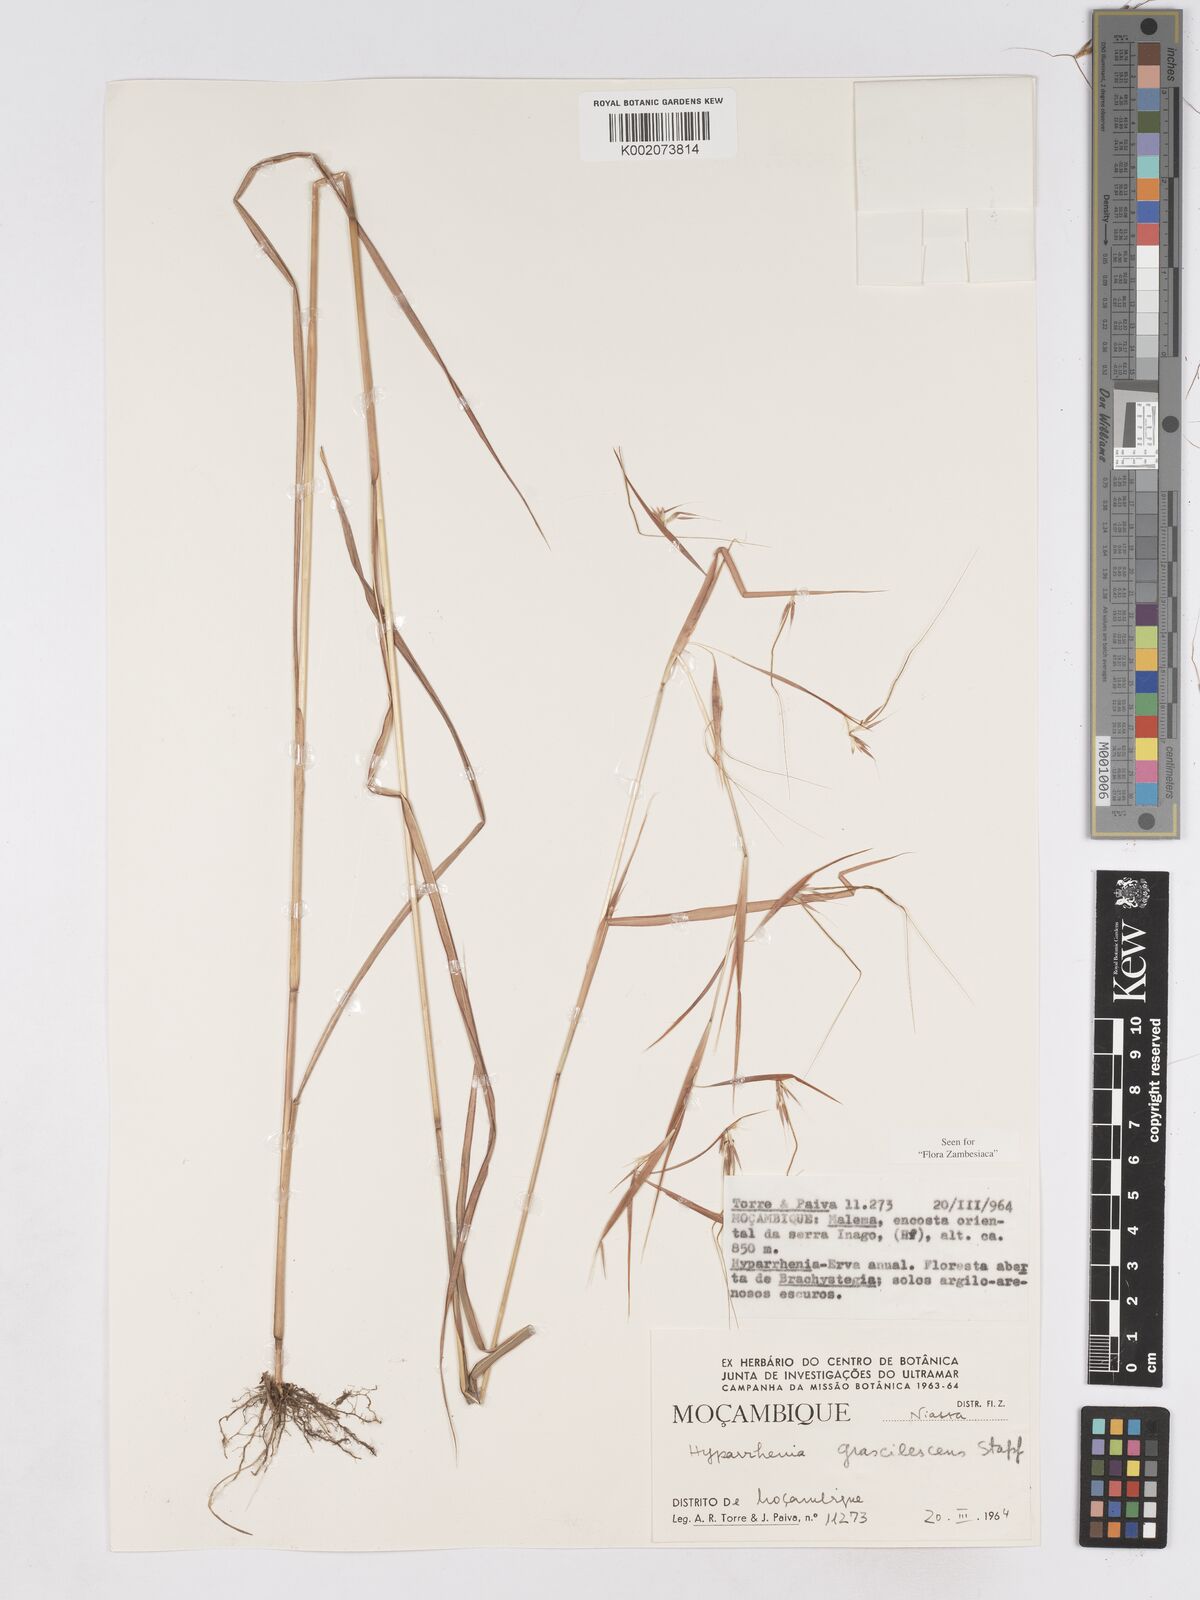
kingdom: Plantae
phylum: Tracheophyta
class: Liliopsida
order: Poales
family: Poaceae
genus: Hyparrhenia
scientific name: Hyparrhenia welwitschii
